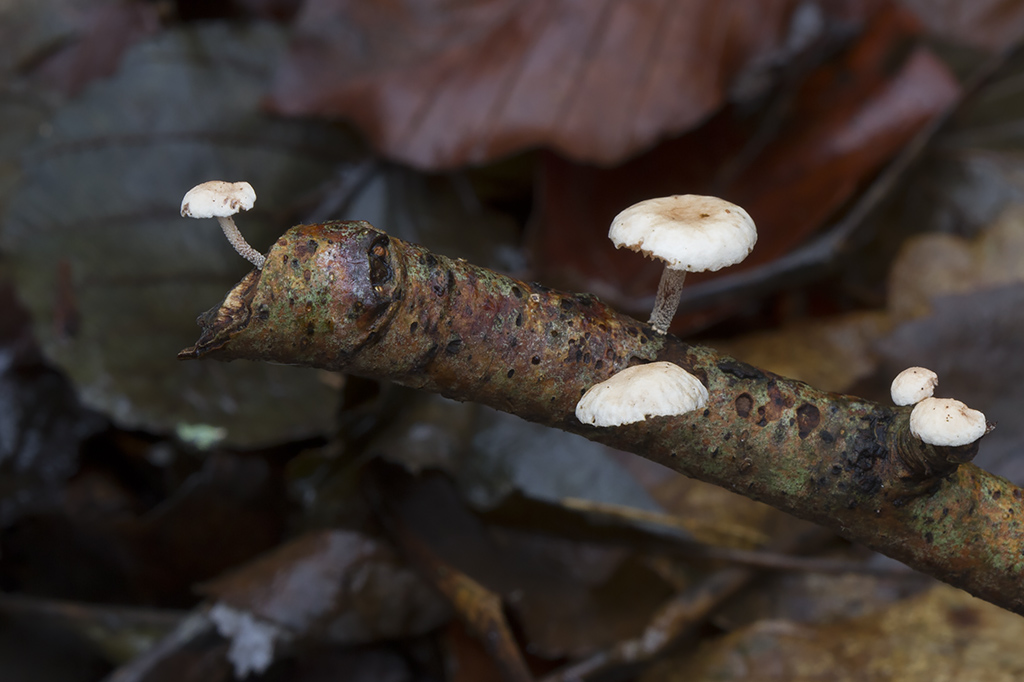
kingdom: Fungi
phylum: Basidiomycota
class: Agaricomycetes
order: Agaricales
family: Omphalotaceae
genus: Collybiopsis
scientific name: Collybiopsis ramealis
